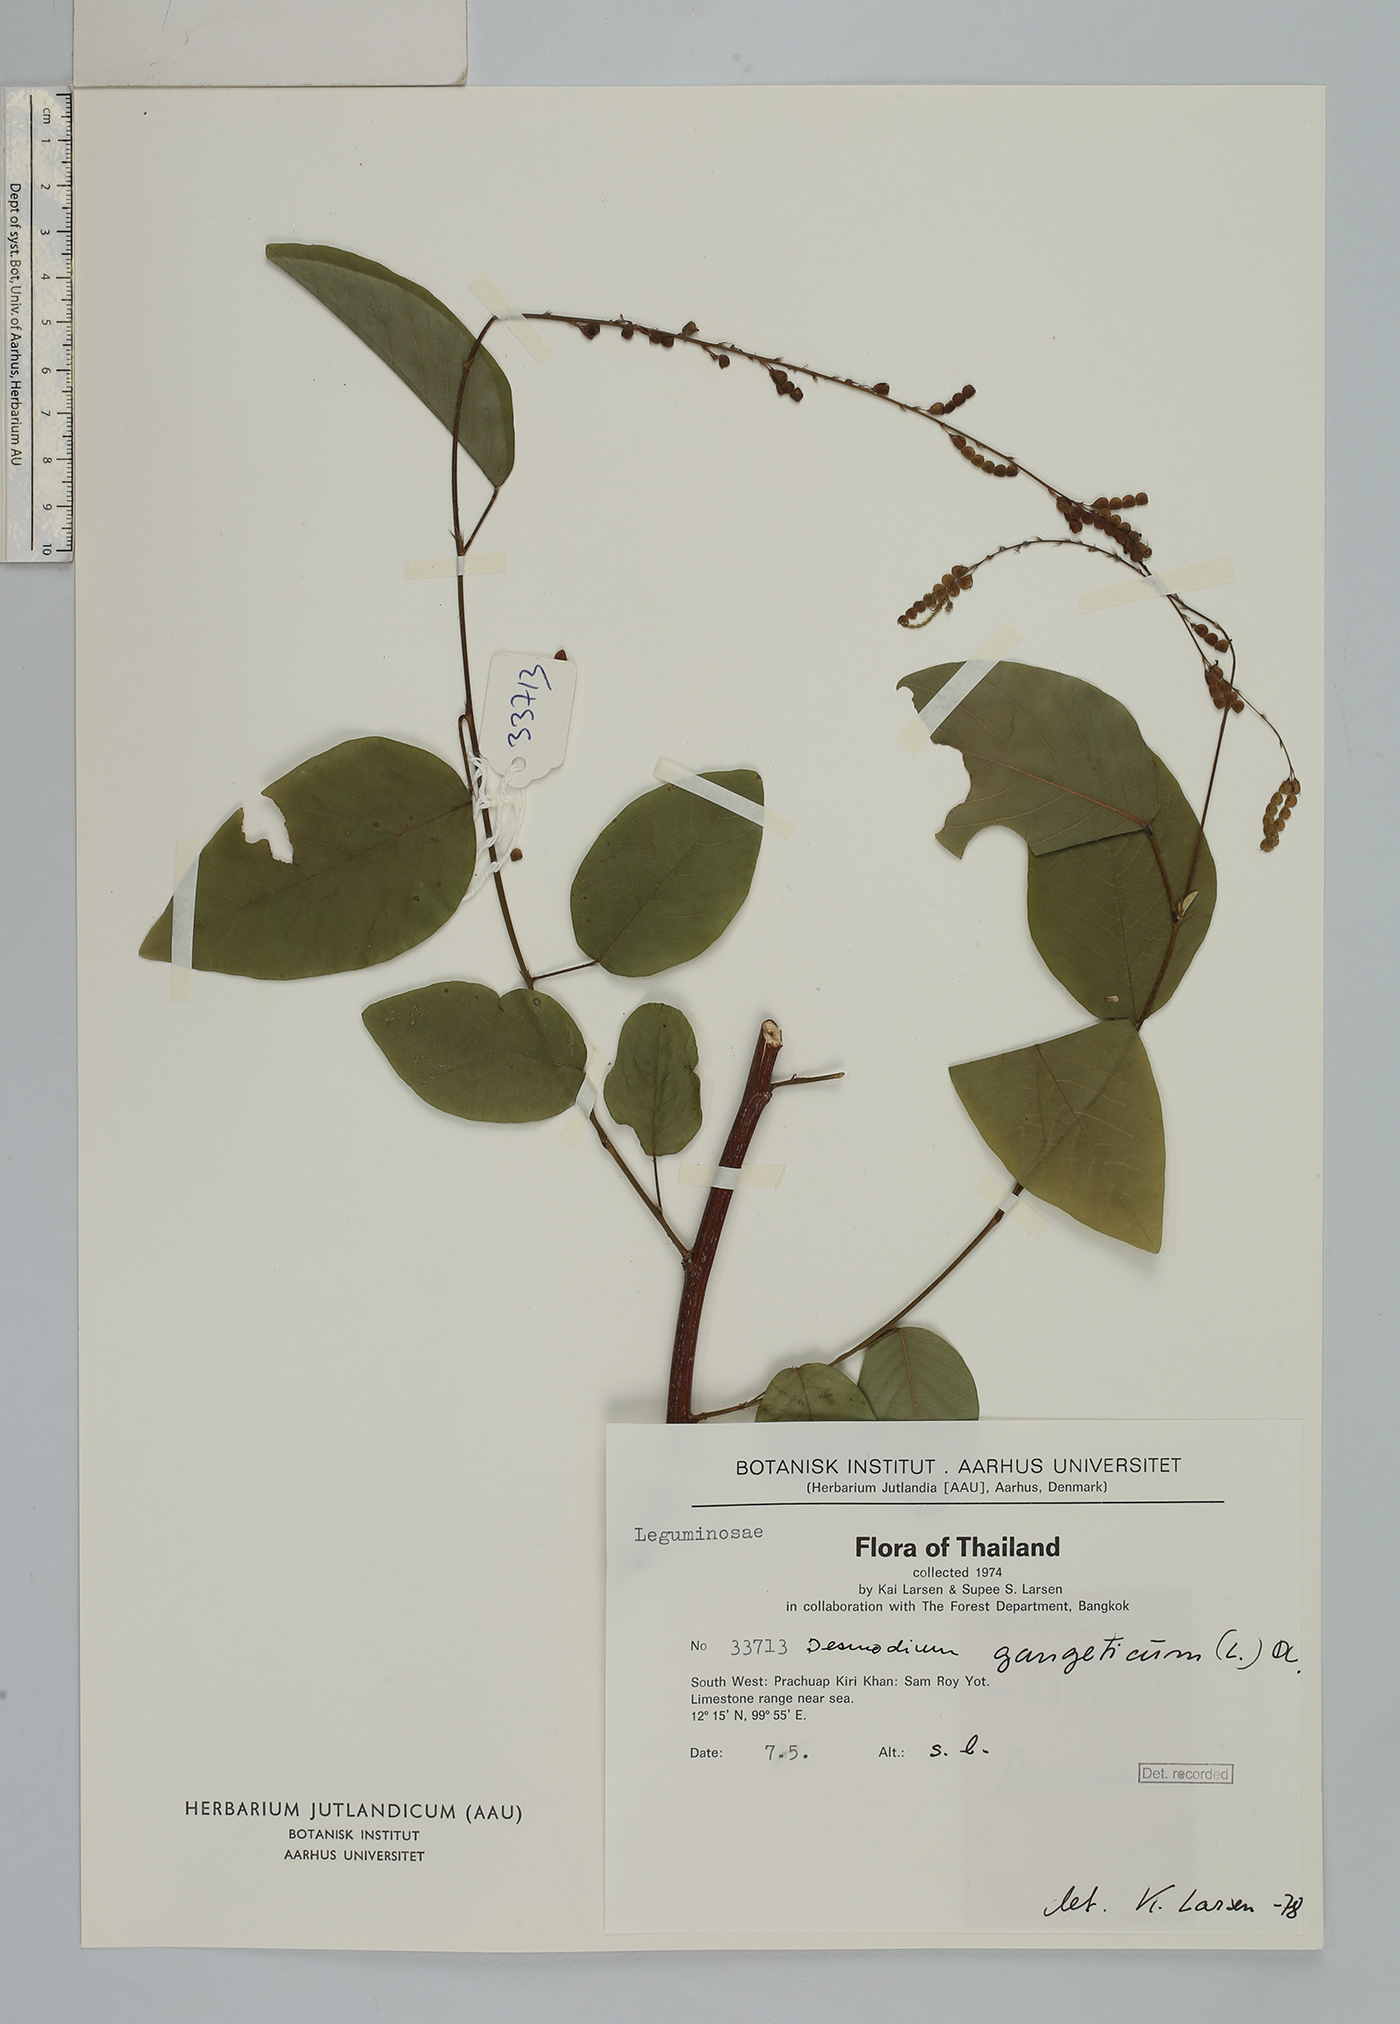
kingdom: Plantae
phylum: Tracheophyta
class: Magnoliopsida
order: Fabales
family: Fabaceae
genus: Pleurolobus
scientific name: Pleurolobus gangeticus
